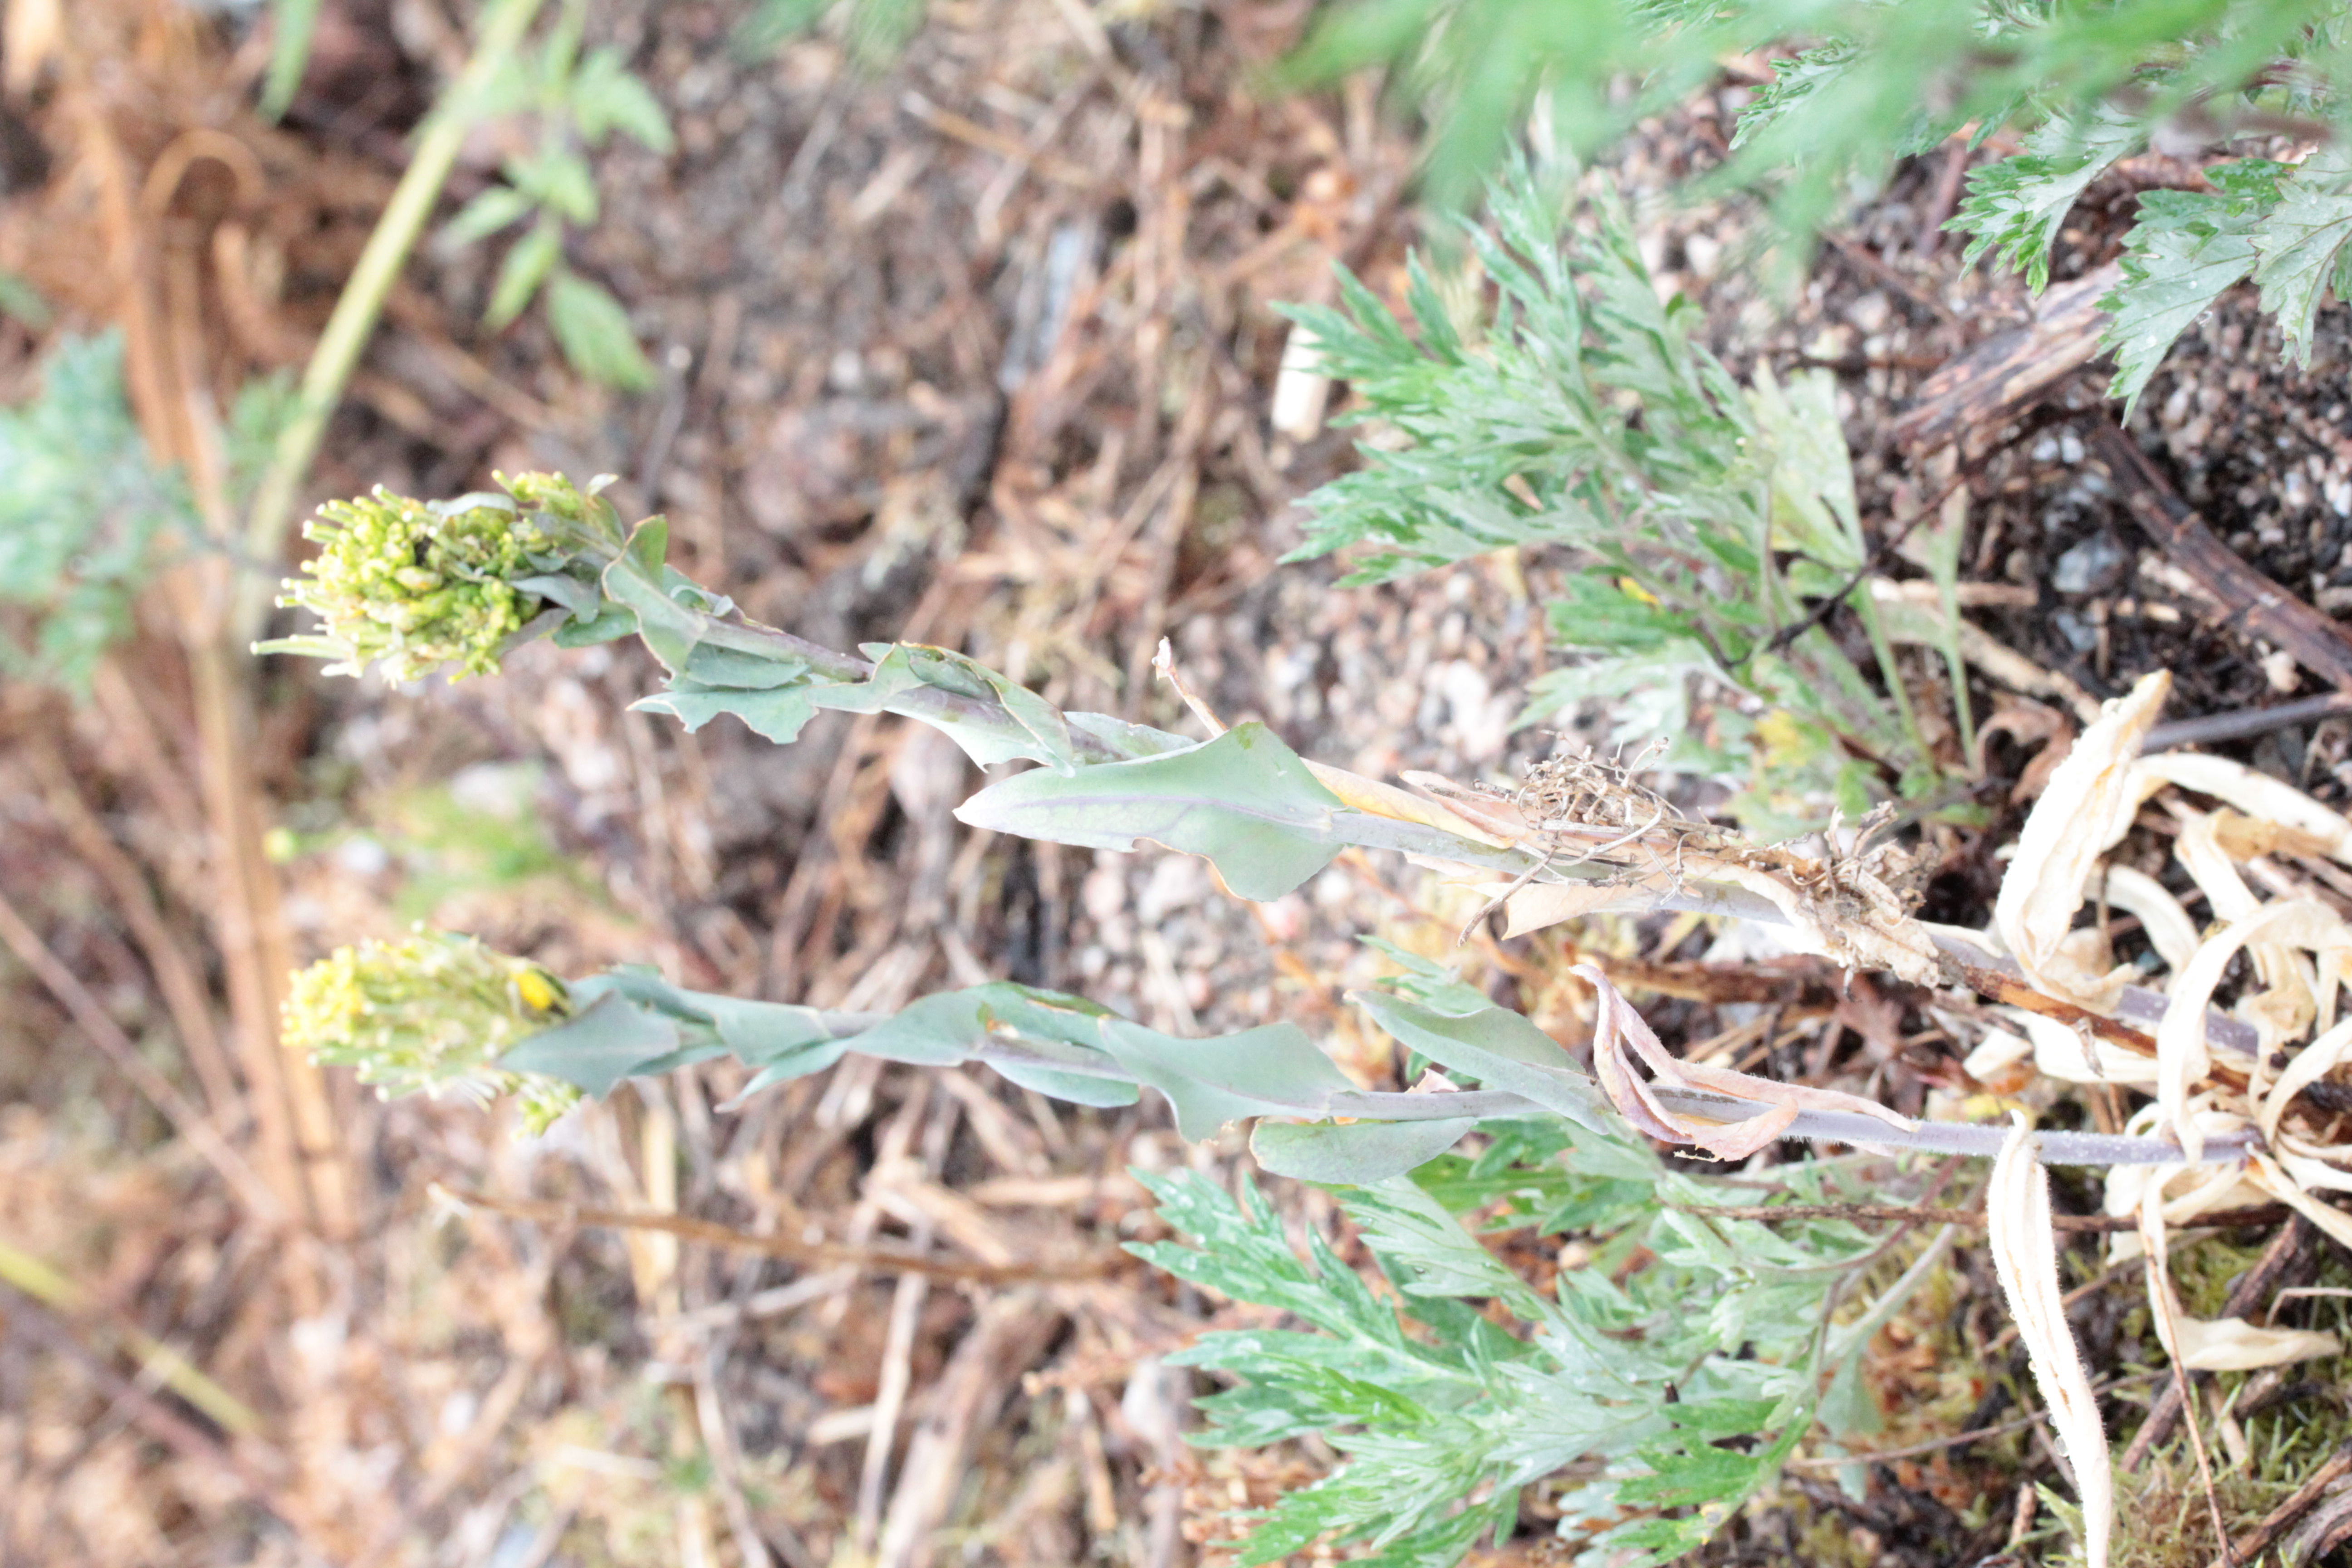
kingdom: Plantae
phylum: Tracheophyta
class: Magnoliopsida
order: Brassicales
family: Brassicaceae
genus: Turritis
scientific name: Turritis glabra
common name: Tower rockcress
